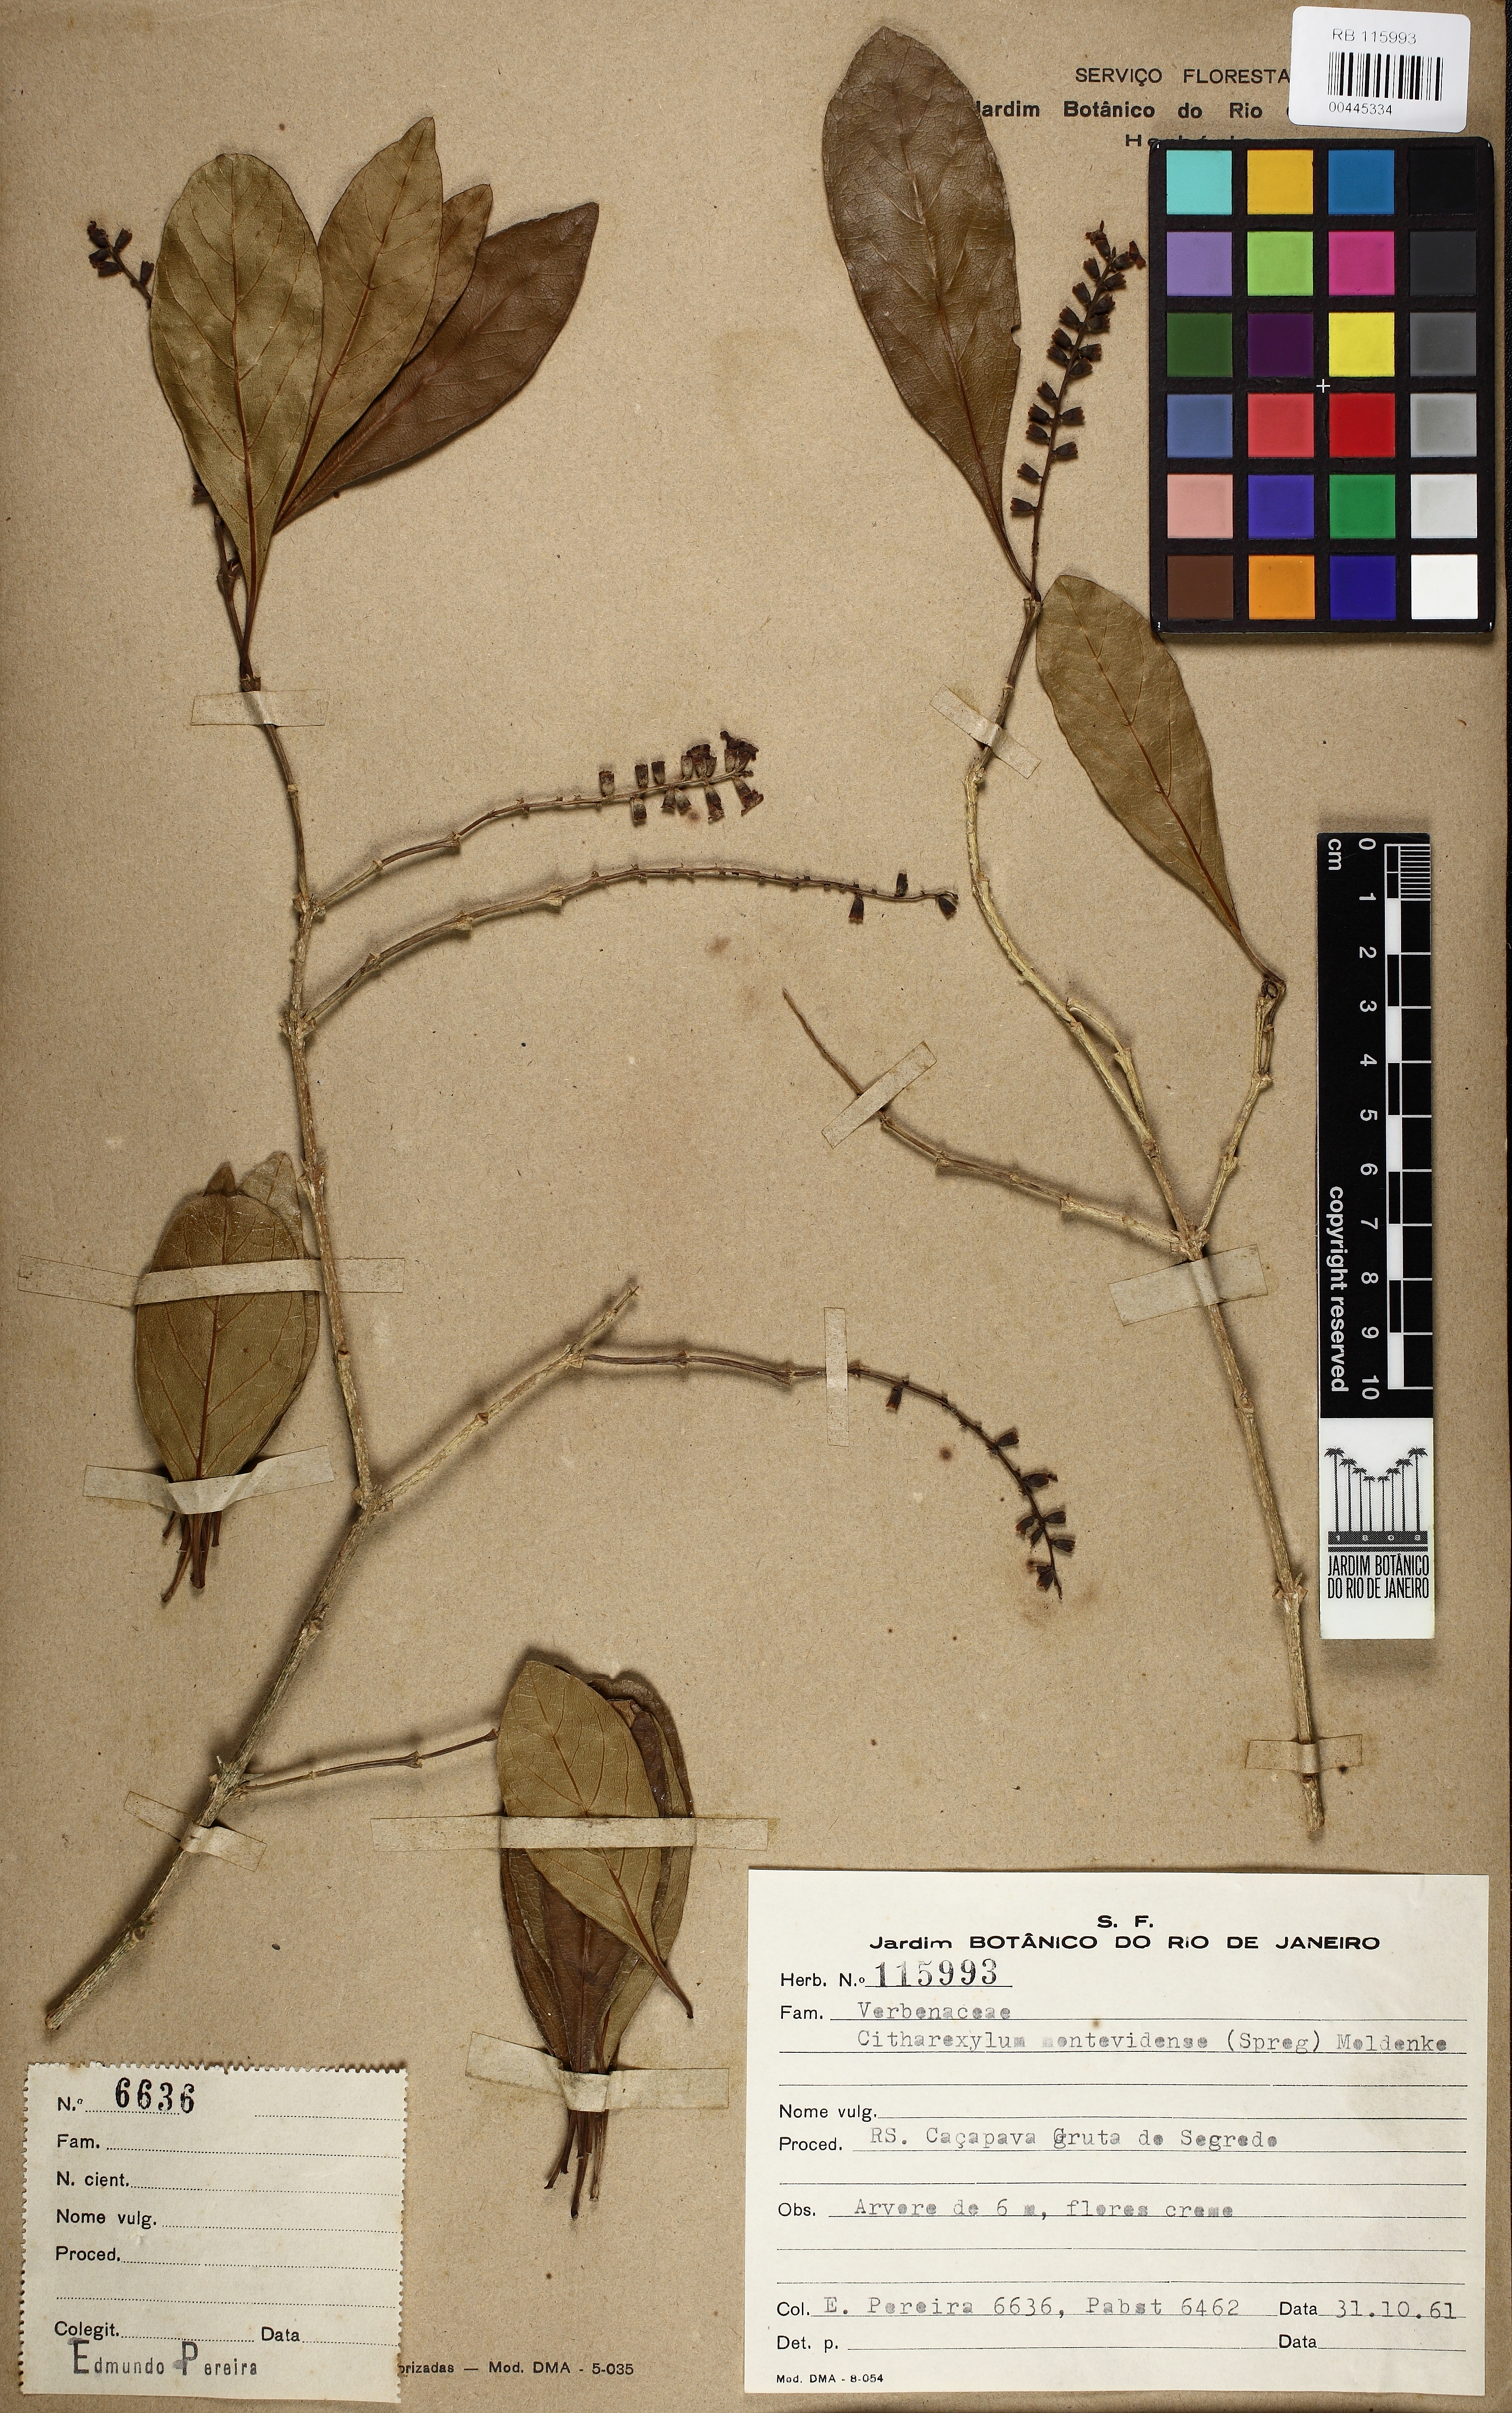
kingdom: Plantae
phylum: Tracheophyta
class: Magnoliopsida
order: Lamiales
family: Verbenaceae
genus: Citharexylum
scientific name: Citharexylum montevidense
